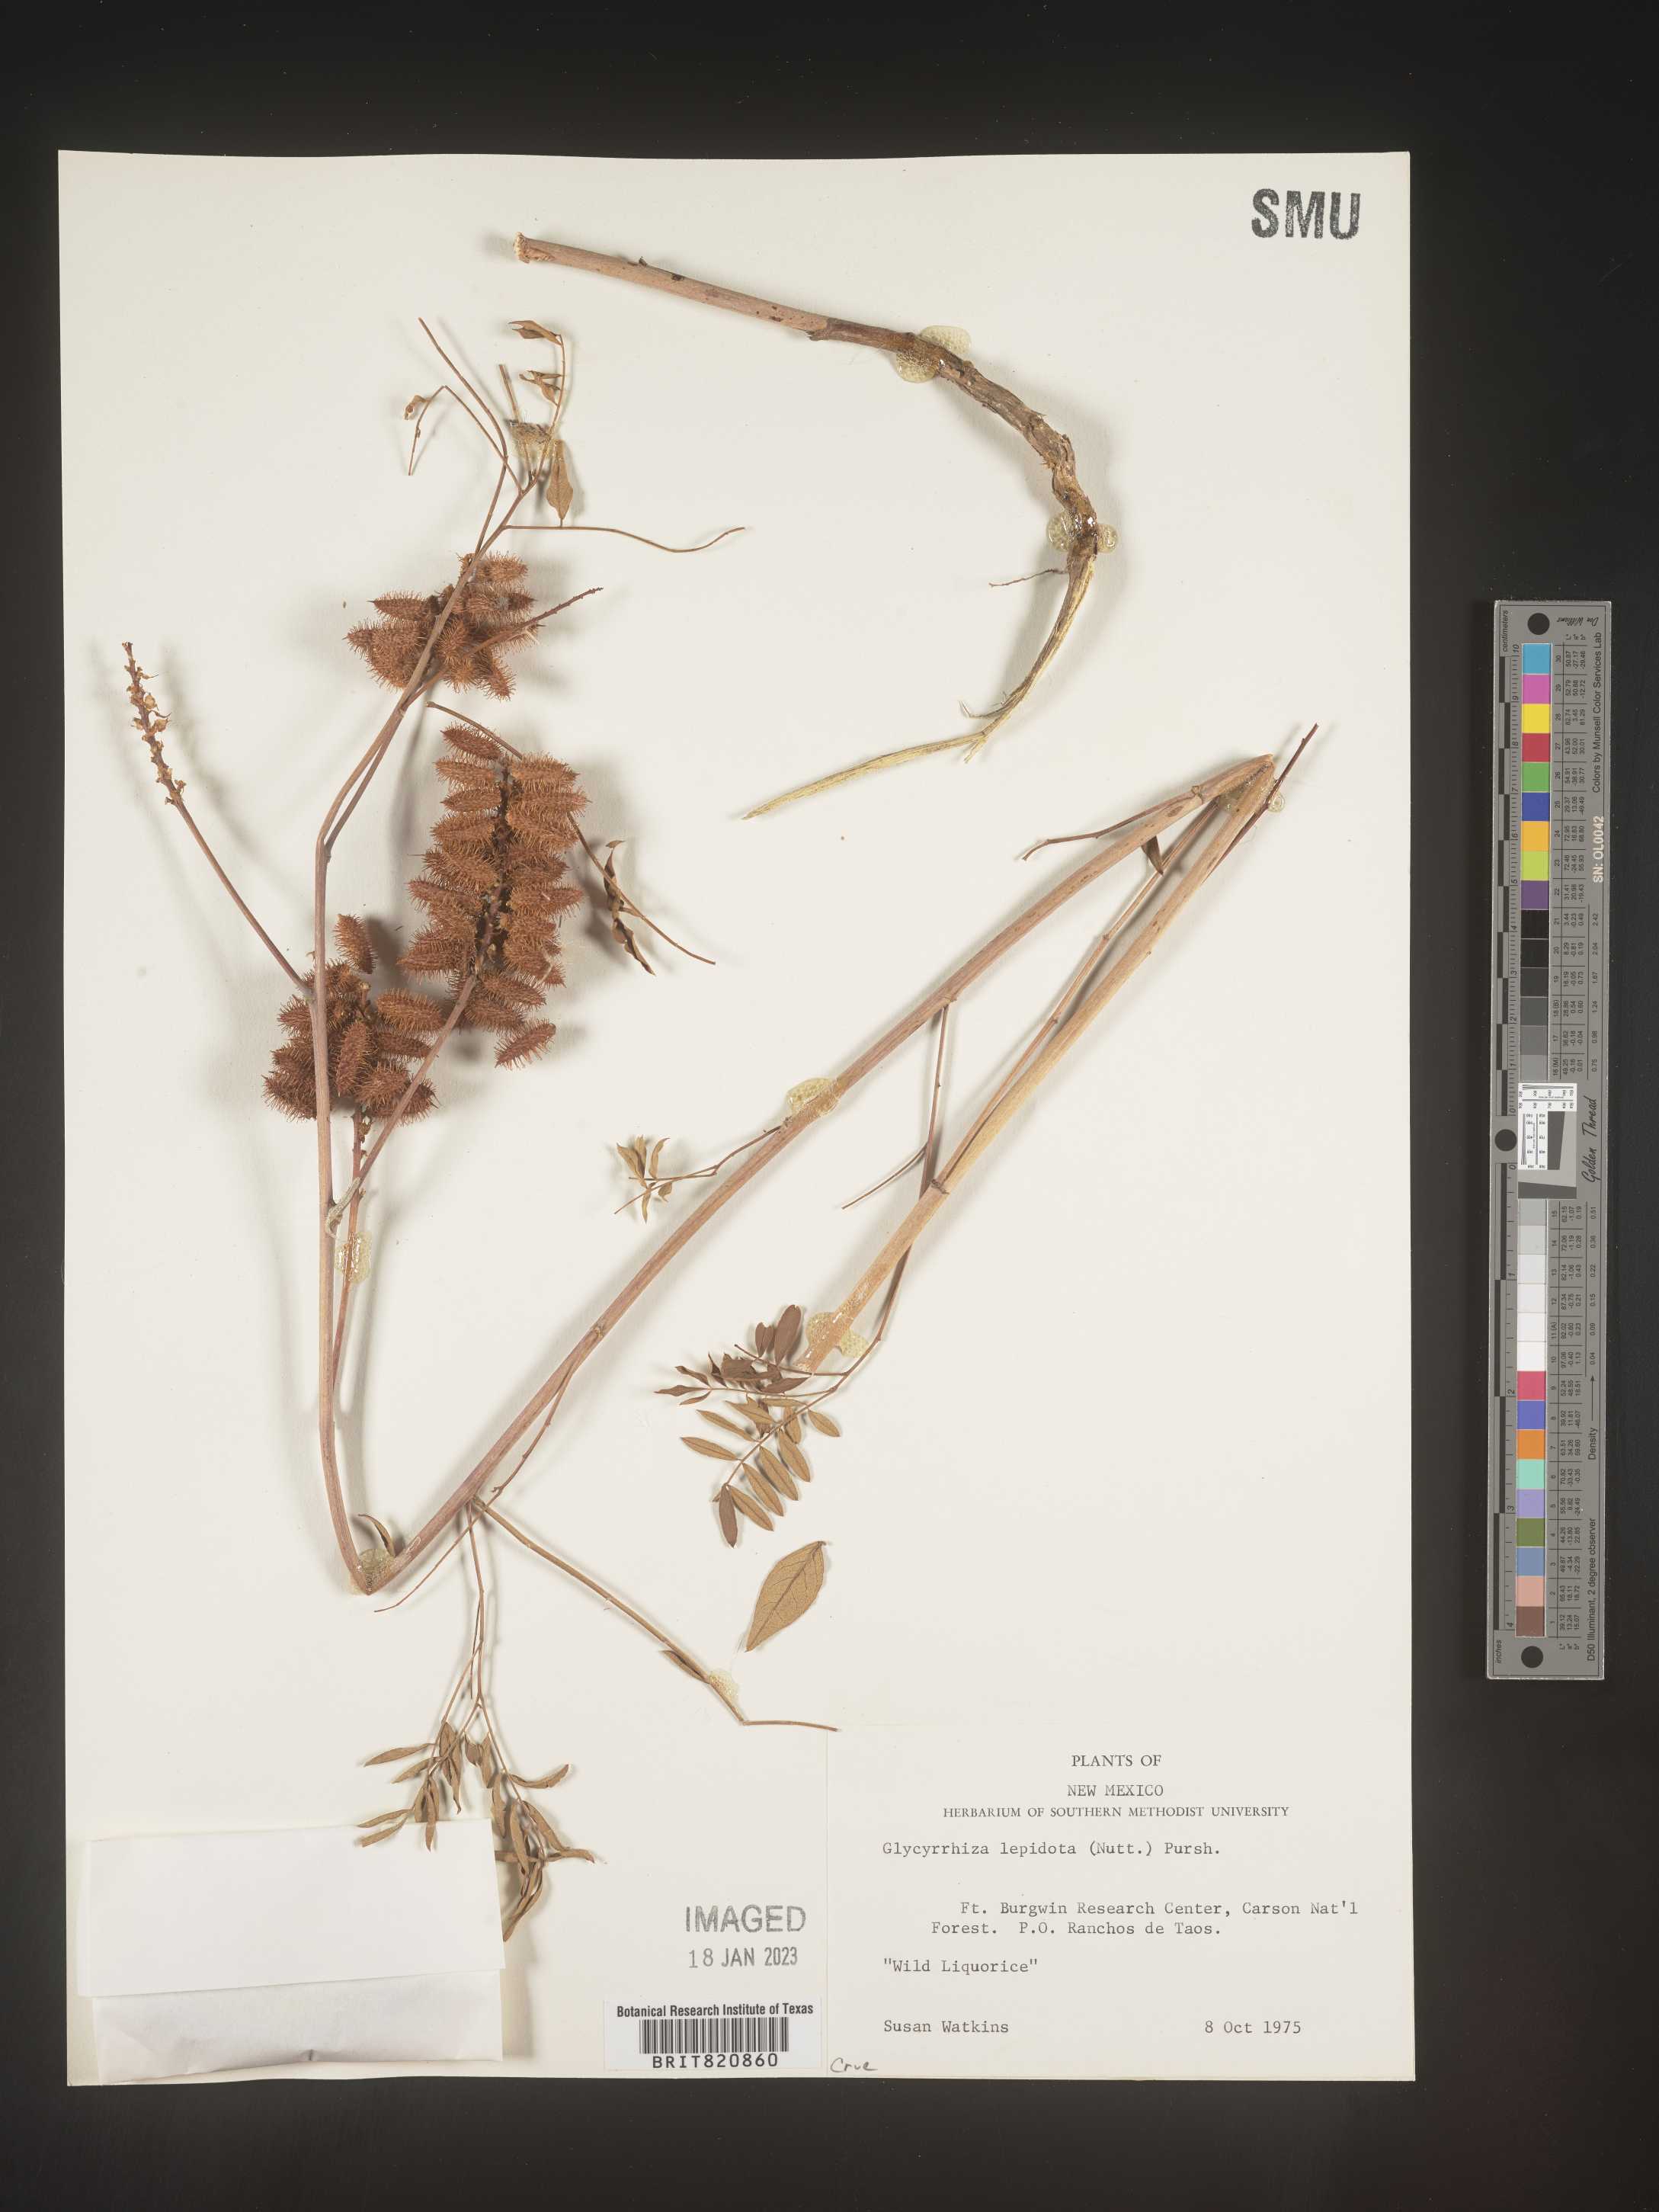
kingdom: Plantae
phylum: Tracheophyta
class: Magnoliopsida
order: Fabales
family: Fabaceae
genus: Glycyrrhiza
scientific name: Glycyrrhiza lepidota
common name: American liquorice
